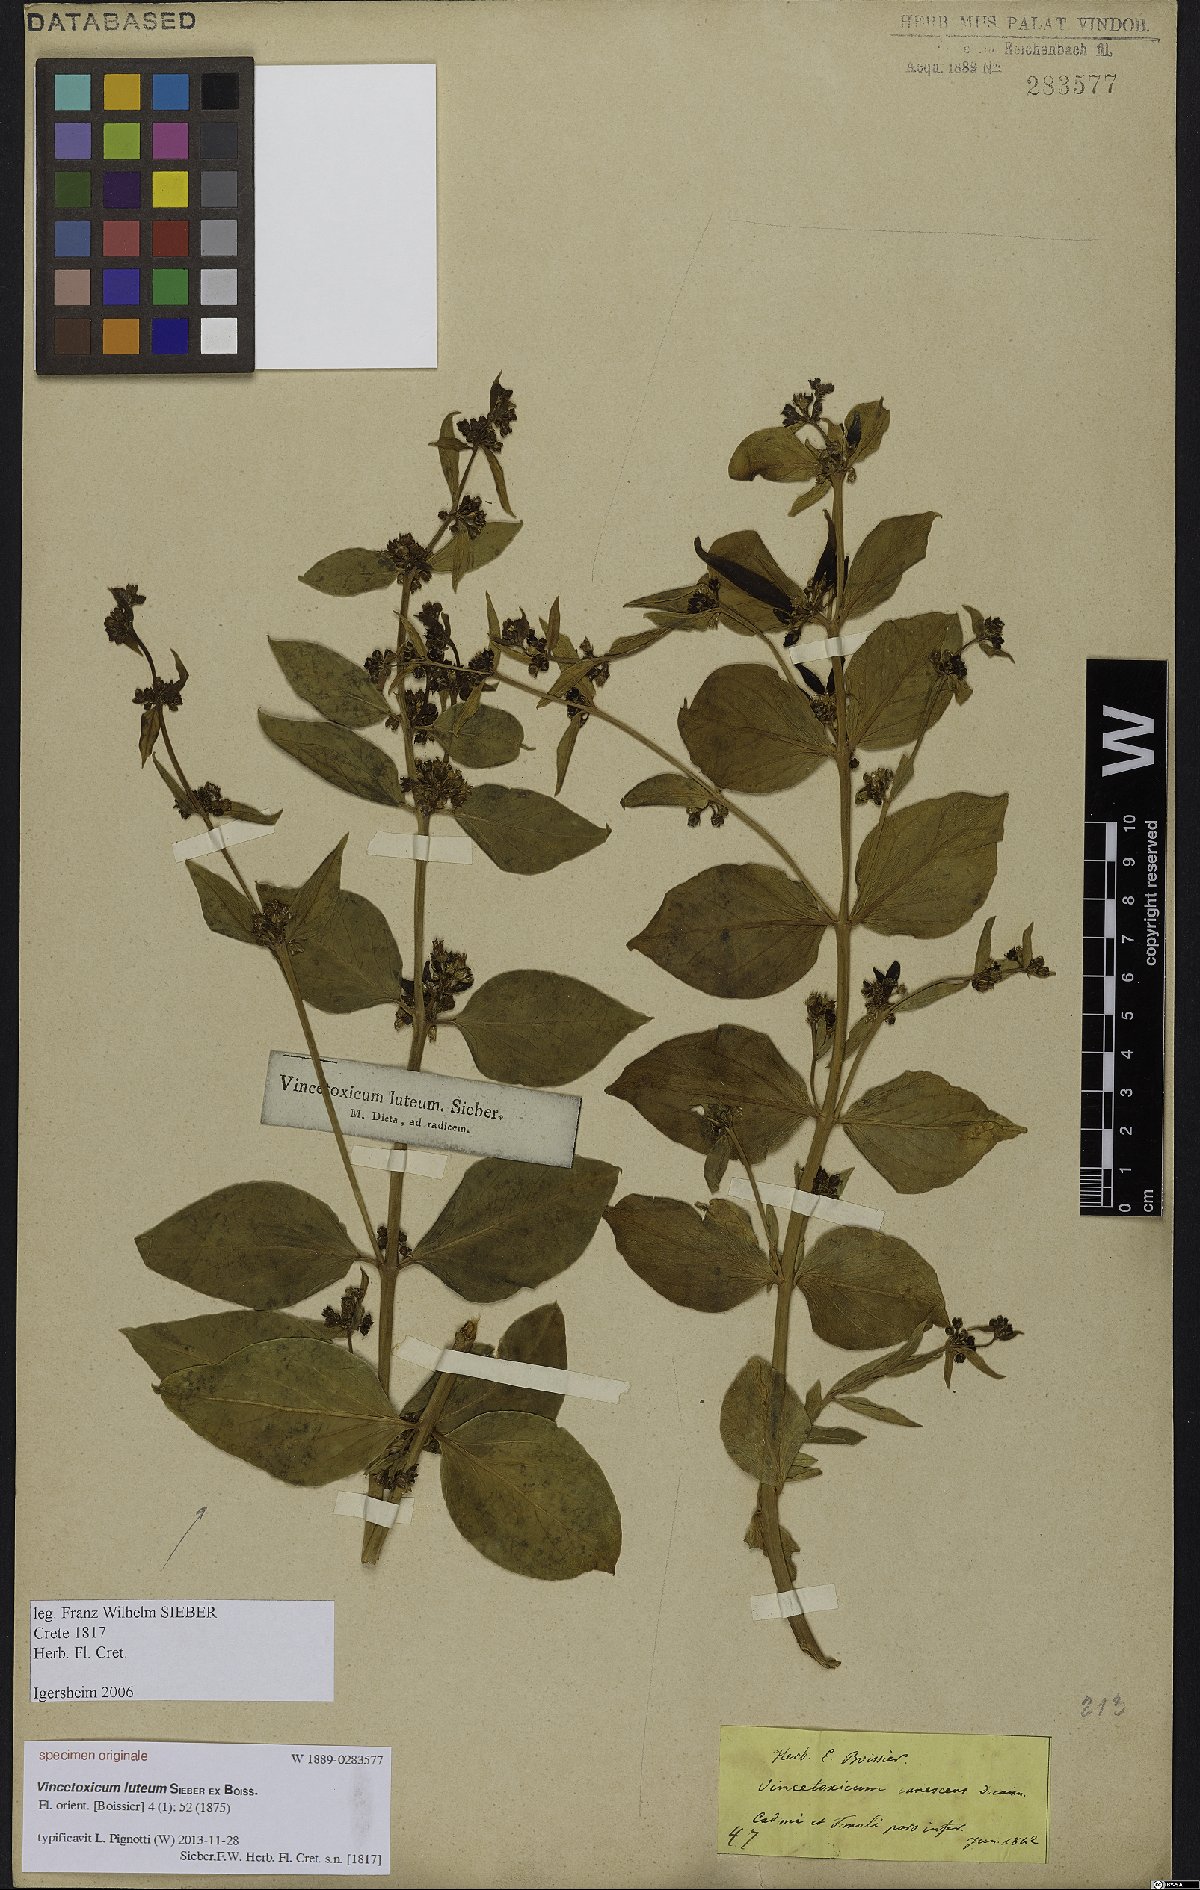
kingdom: Plantae
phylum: Tracheophyta
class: Magnoliopsida
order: Gentianales
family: Apocynaceae
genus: Vincetoxicum
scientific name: Vincetoxicum canescens
